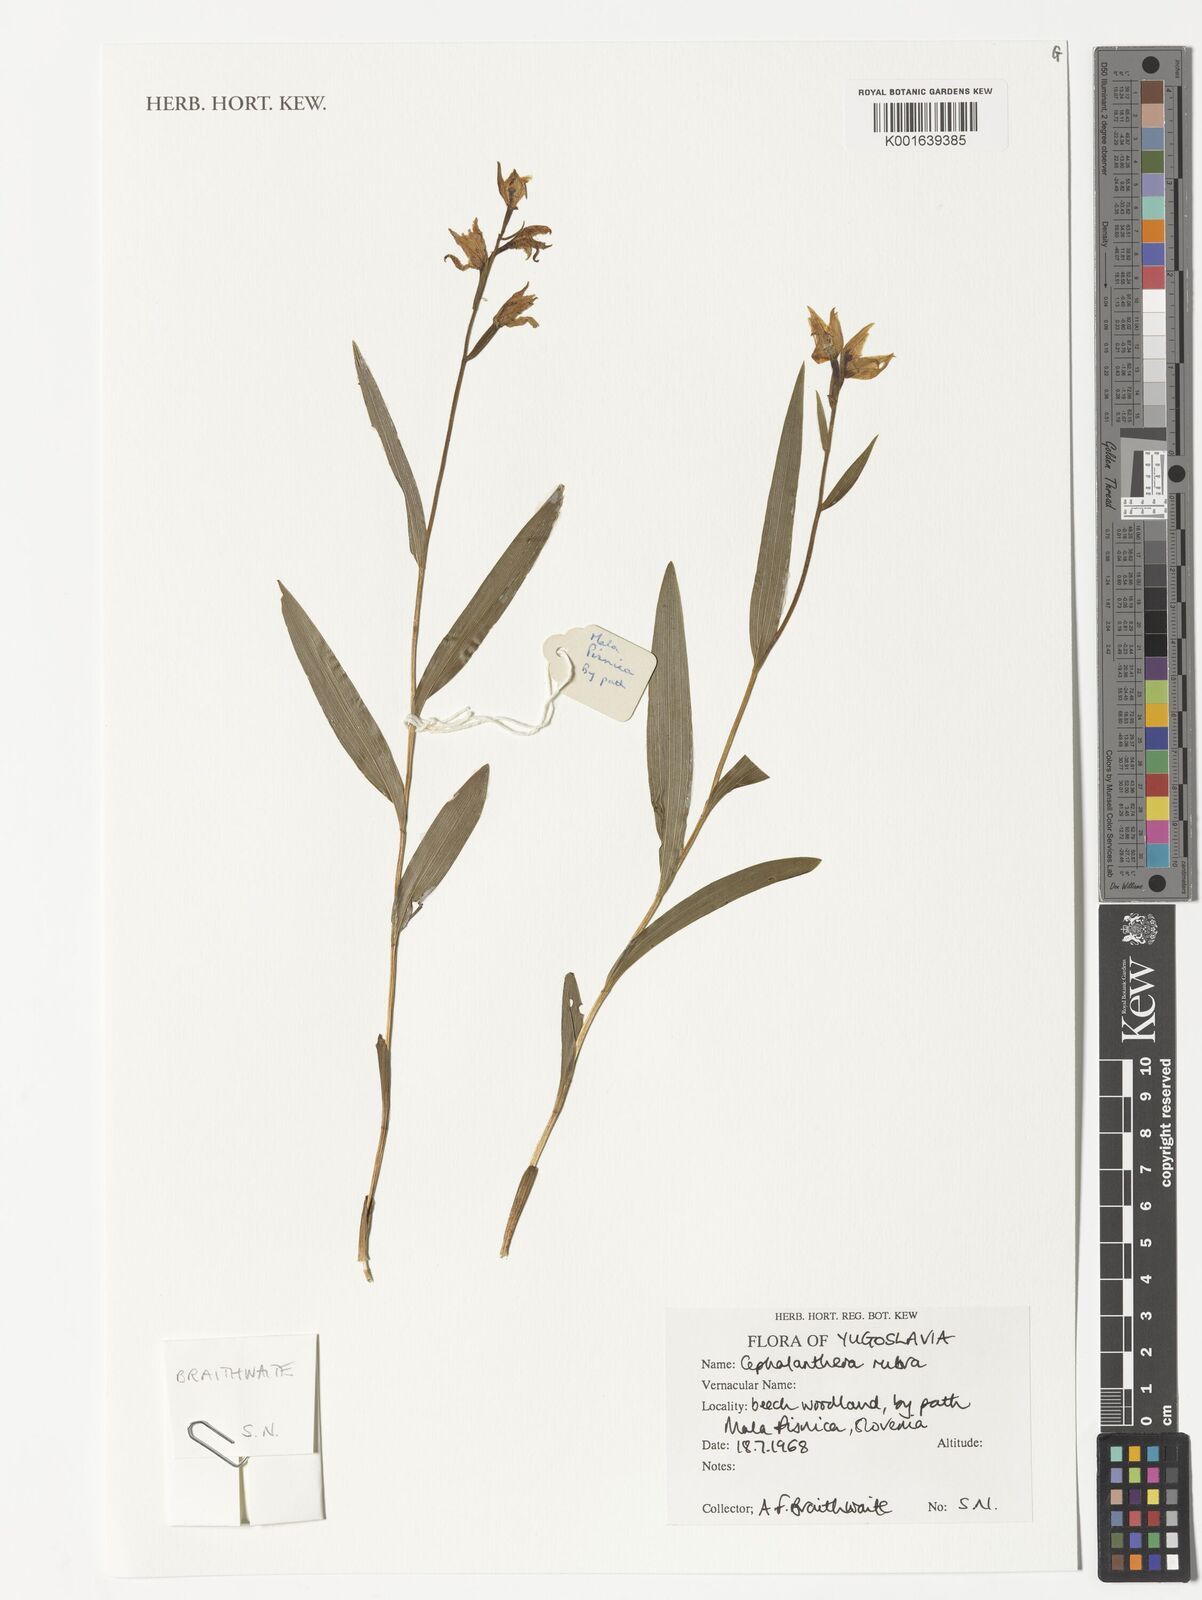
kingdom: Plantae
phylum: Tracheophyta
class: Liliopsida
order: Asparagales
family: Orchidaceae
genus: Cephalanthera
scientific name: Cephalanthera rubra
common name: Red helleborine
